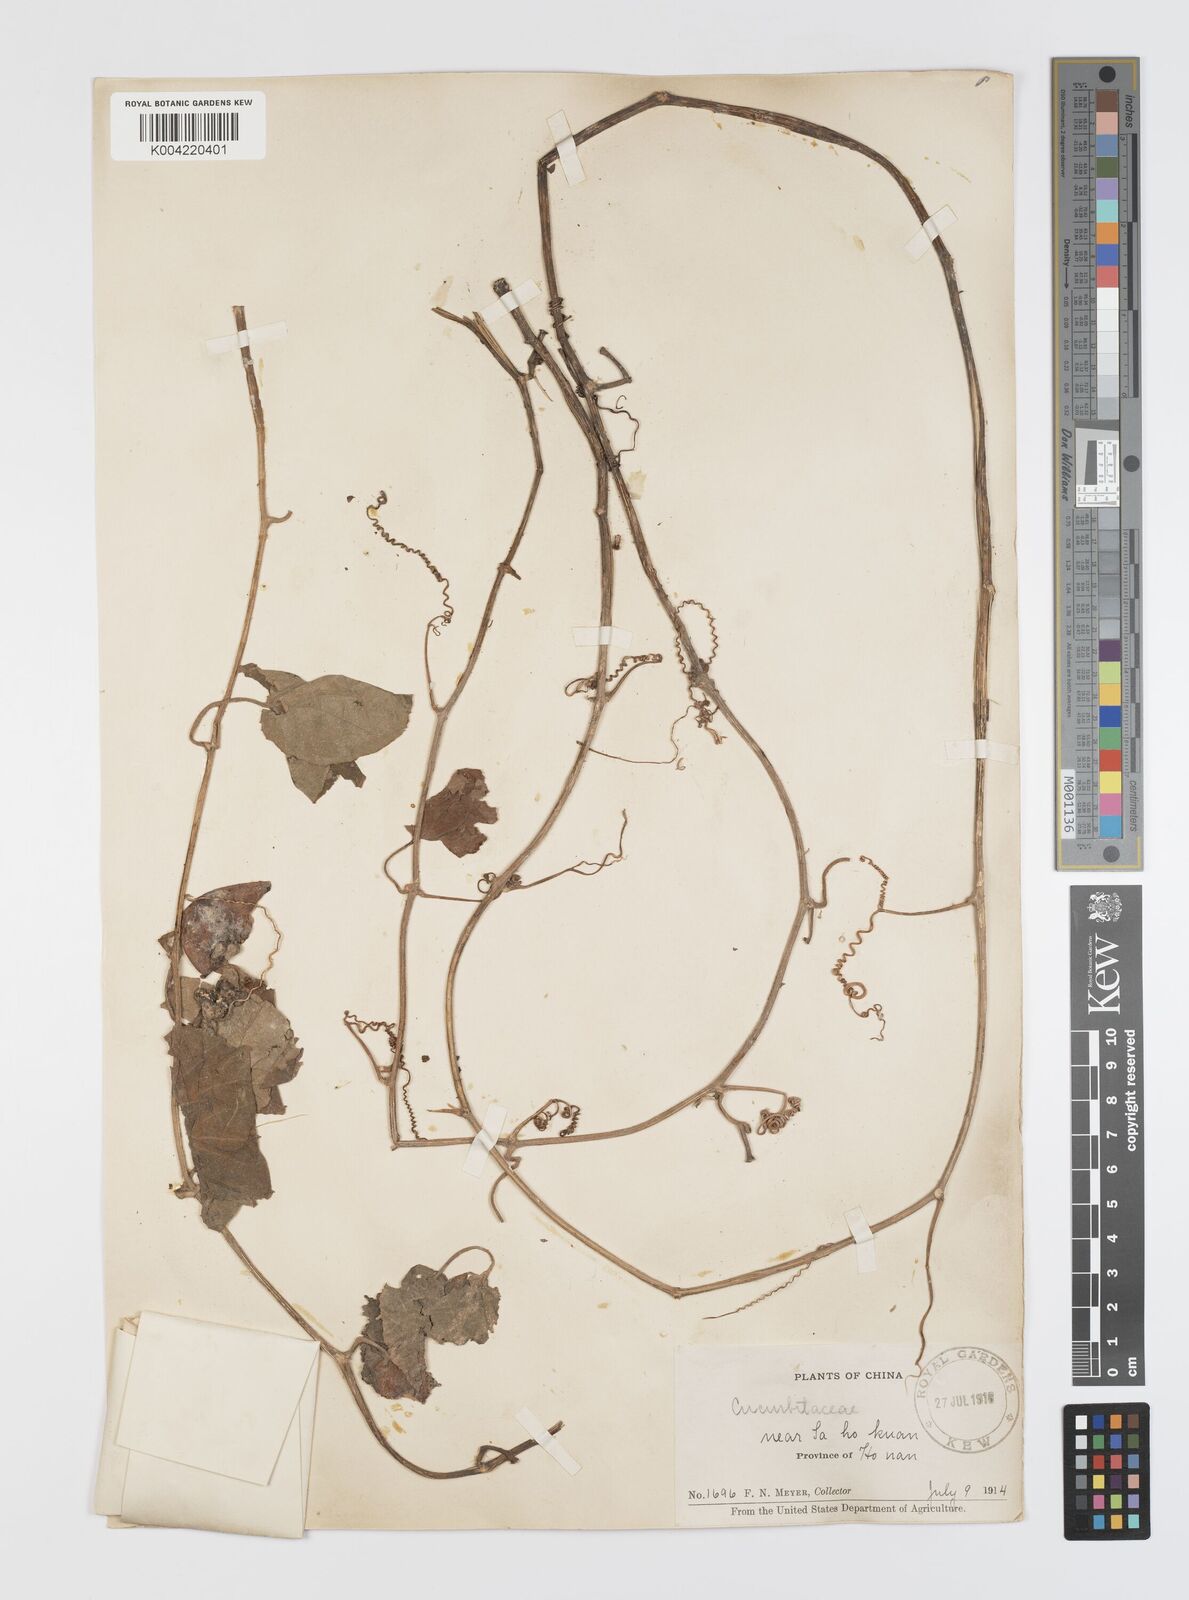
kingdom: Plantae
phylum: Tracheophyta
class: Magnoliopsida
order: Cucurbitales
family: Cucurbitaceae
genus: Thladiantha
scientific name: Thladiantha nudiflora
